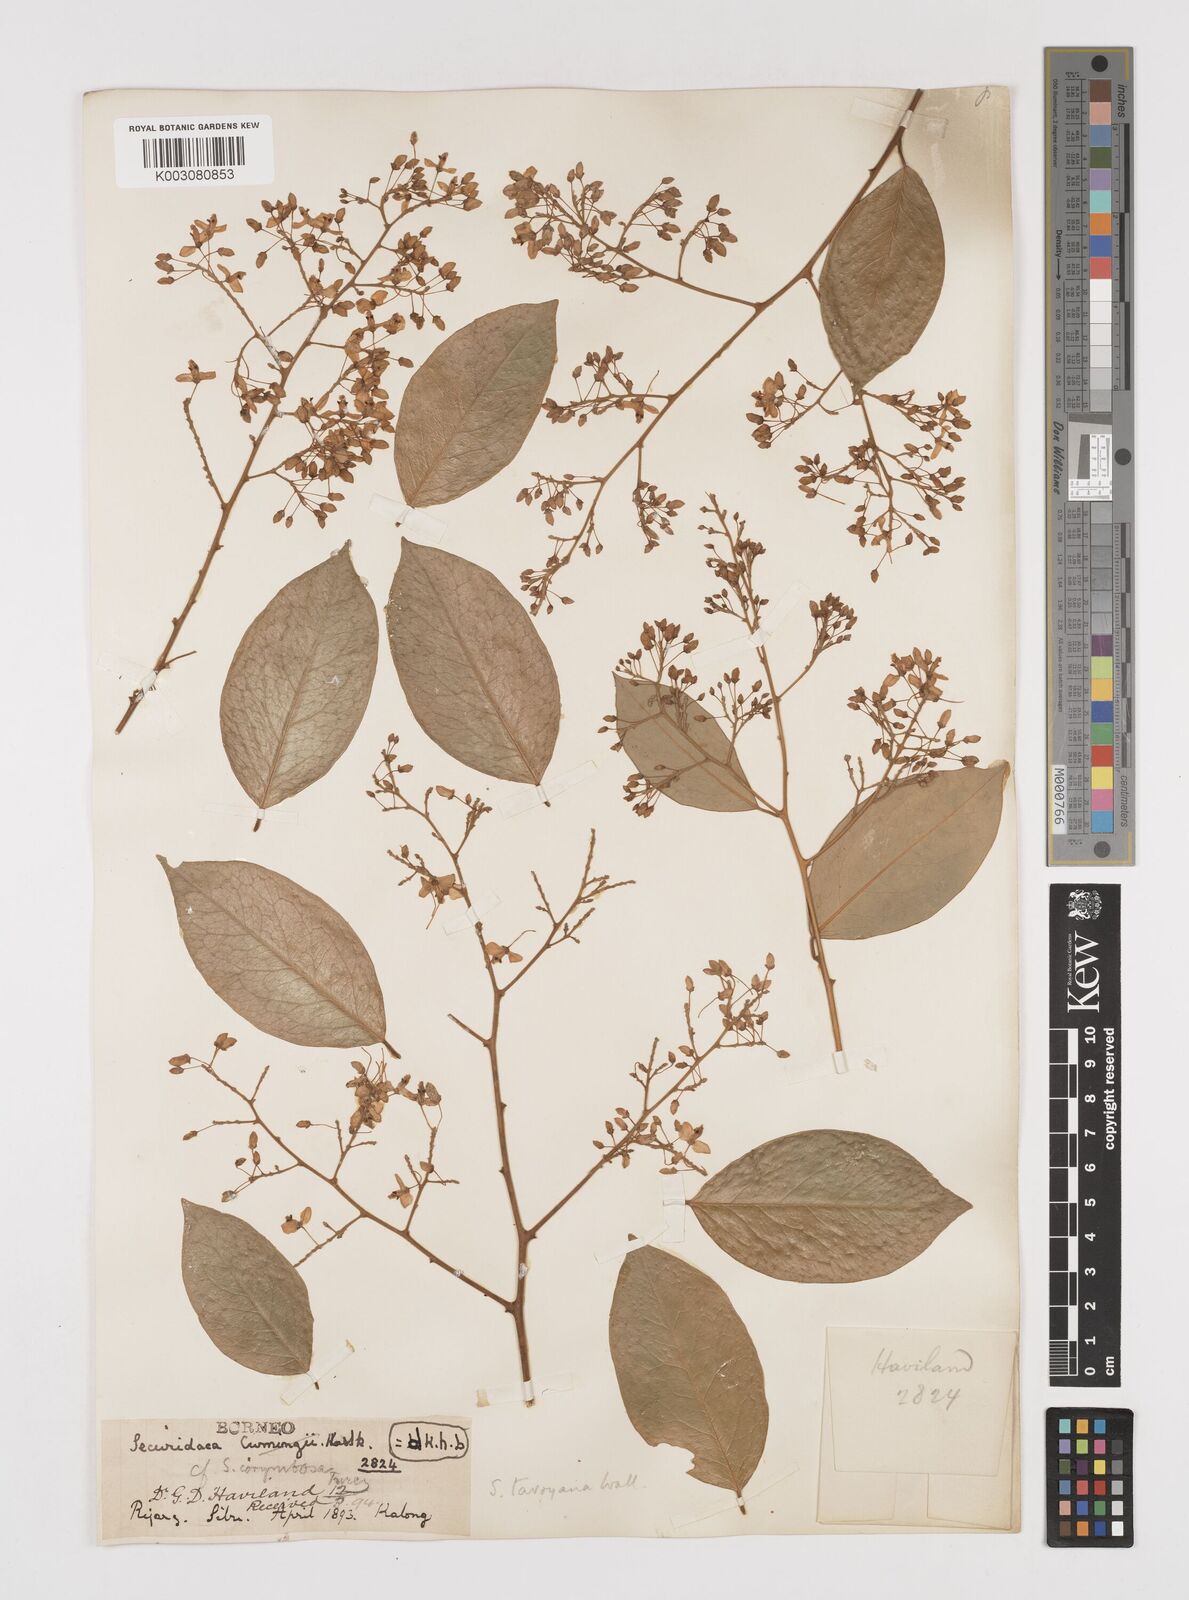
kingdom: Plantae
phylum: Tracheophyta
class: Magnoliopsida
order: Fabales
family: Polygalaceae
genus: Securidaca
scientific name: Securidaca inappendiculata
